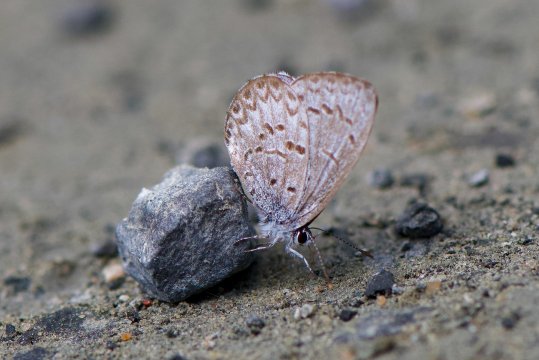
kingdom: Animalia
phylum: Arthropoda
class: Insecta
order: Lepidoptera
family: Lycaenidae
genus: Celastrina
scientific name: Celastrina lucia
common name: Northern Spring Azure
